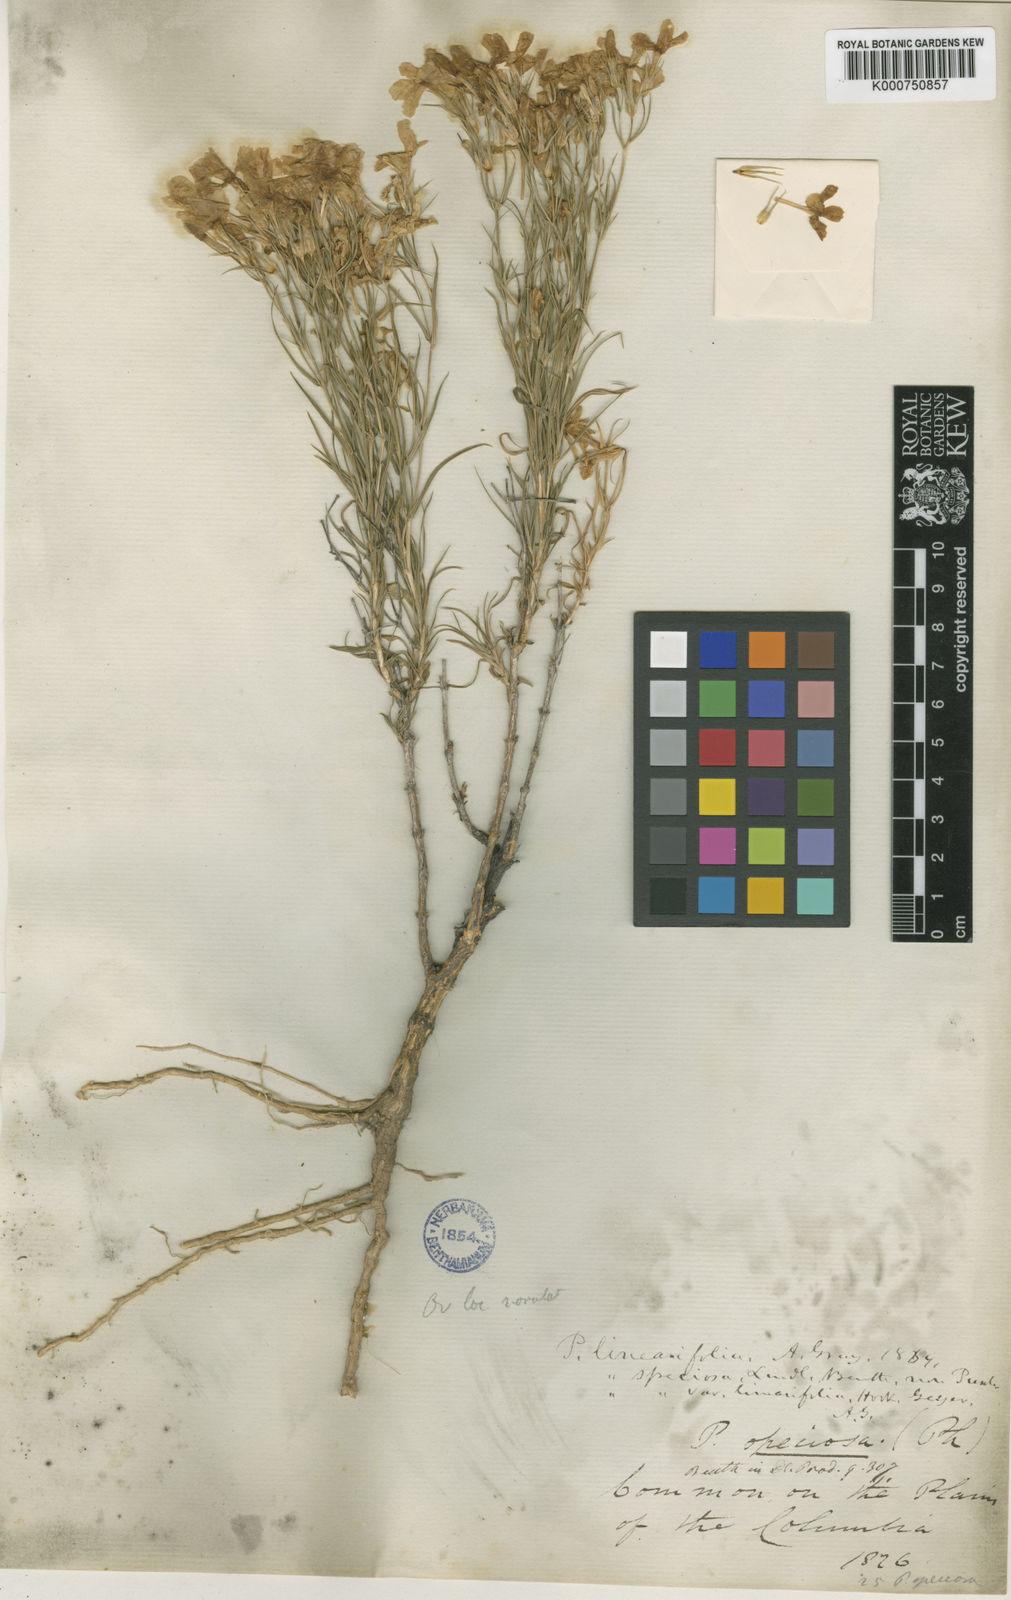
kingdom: Plantae
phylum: Tracheophyta
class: Magnoliopsida
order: Ericales
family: Polemoniaceae
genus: Phlox
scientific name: Phlox
